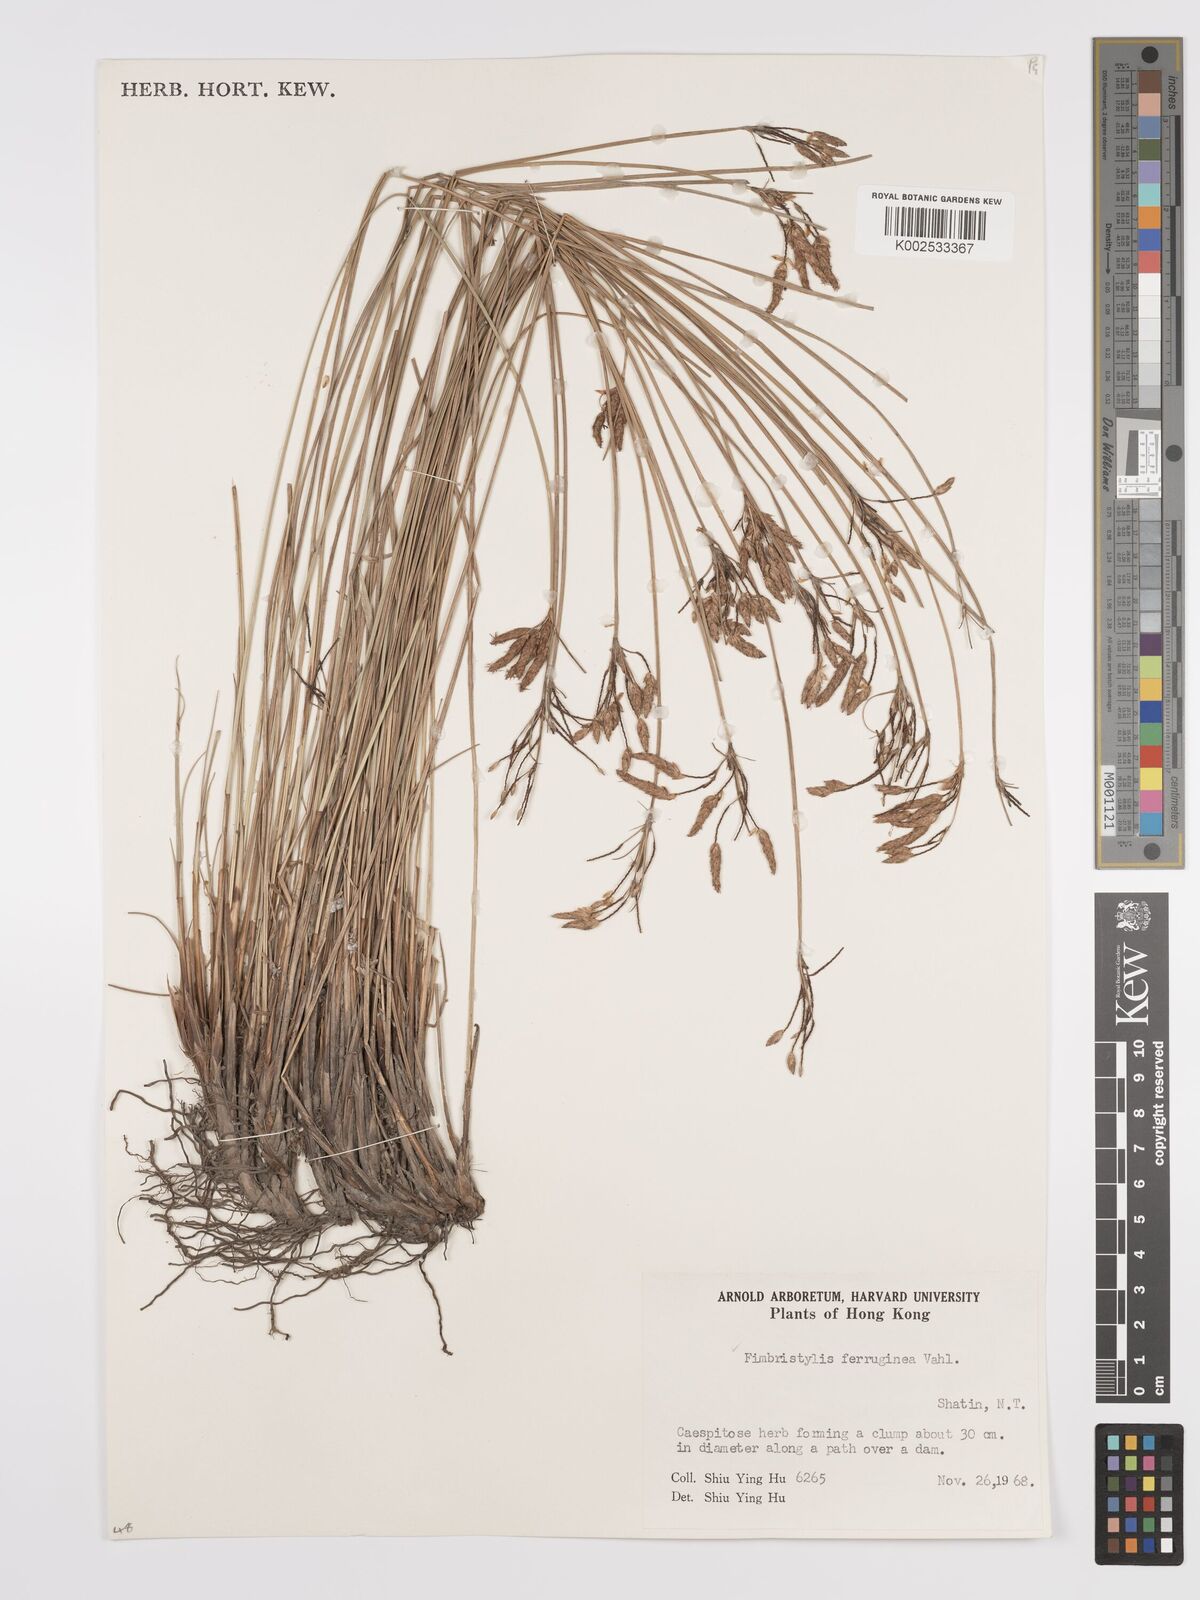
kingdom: Plantae
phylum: Tracheophyta
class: Liliopsida
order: Poales
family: Cyperaceae
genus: Fimbristylis
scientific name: Fimbristylis ferruginea
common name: West indian fimbry
